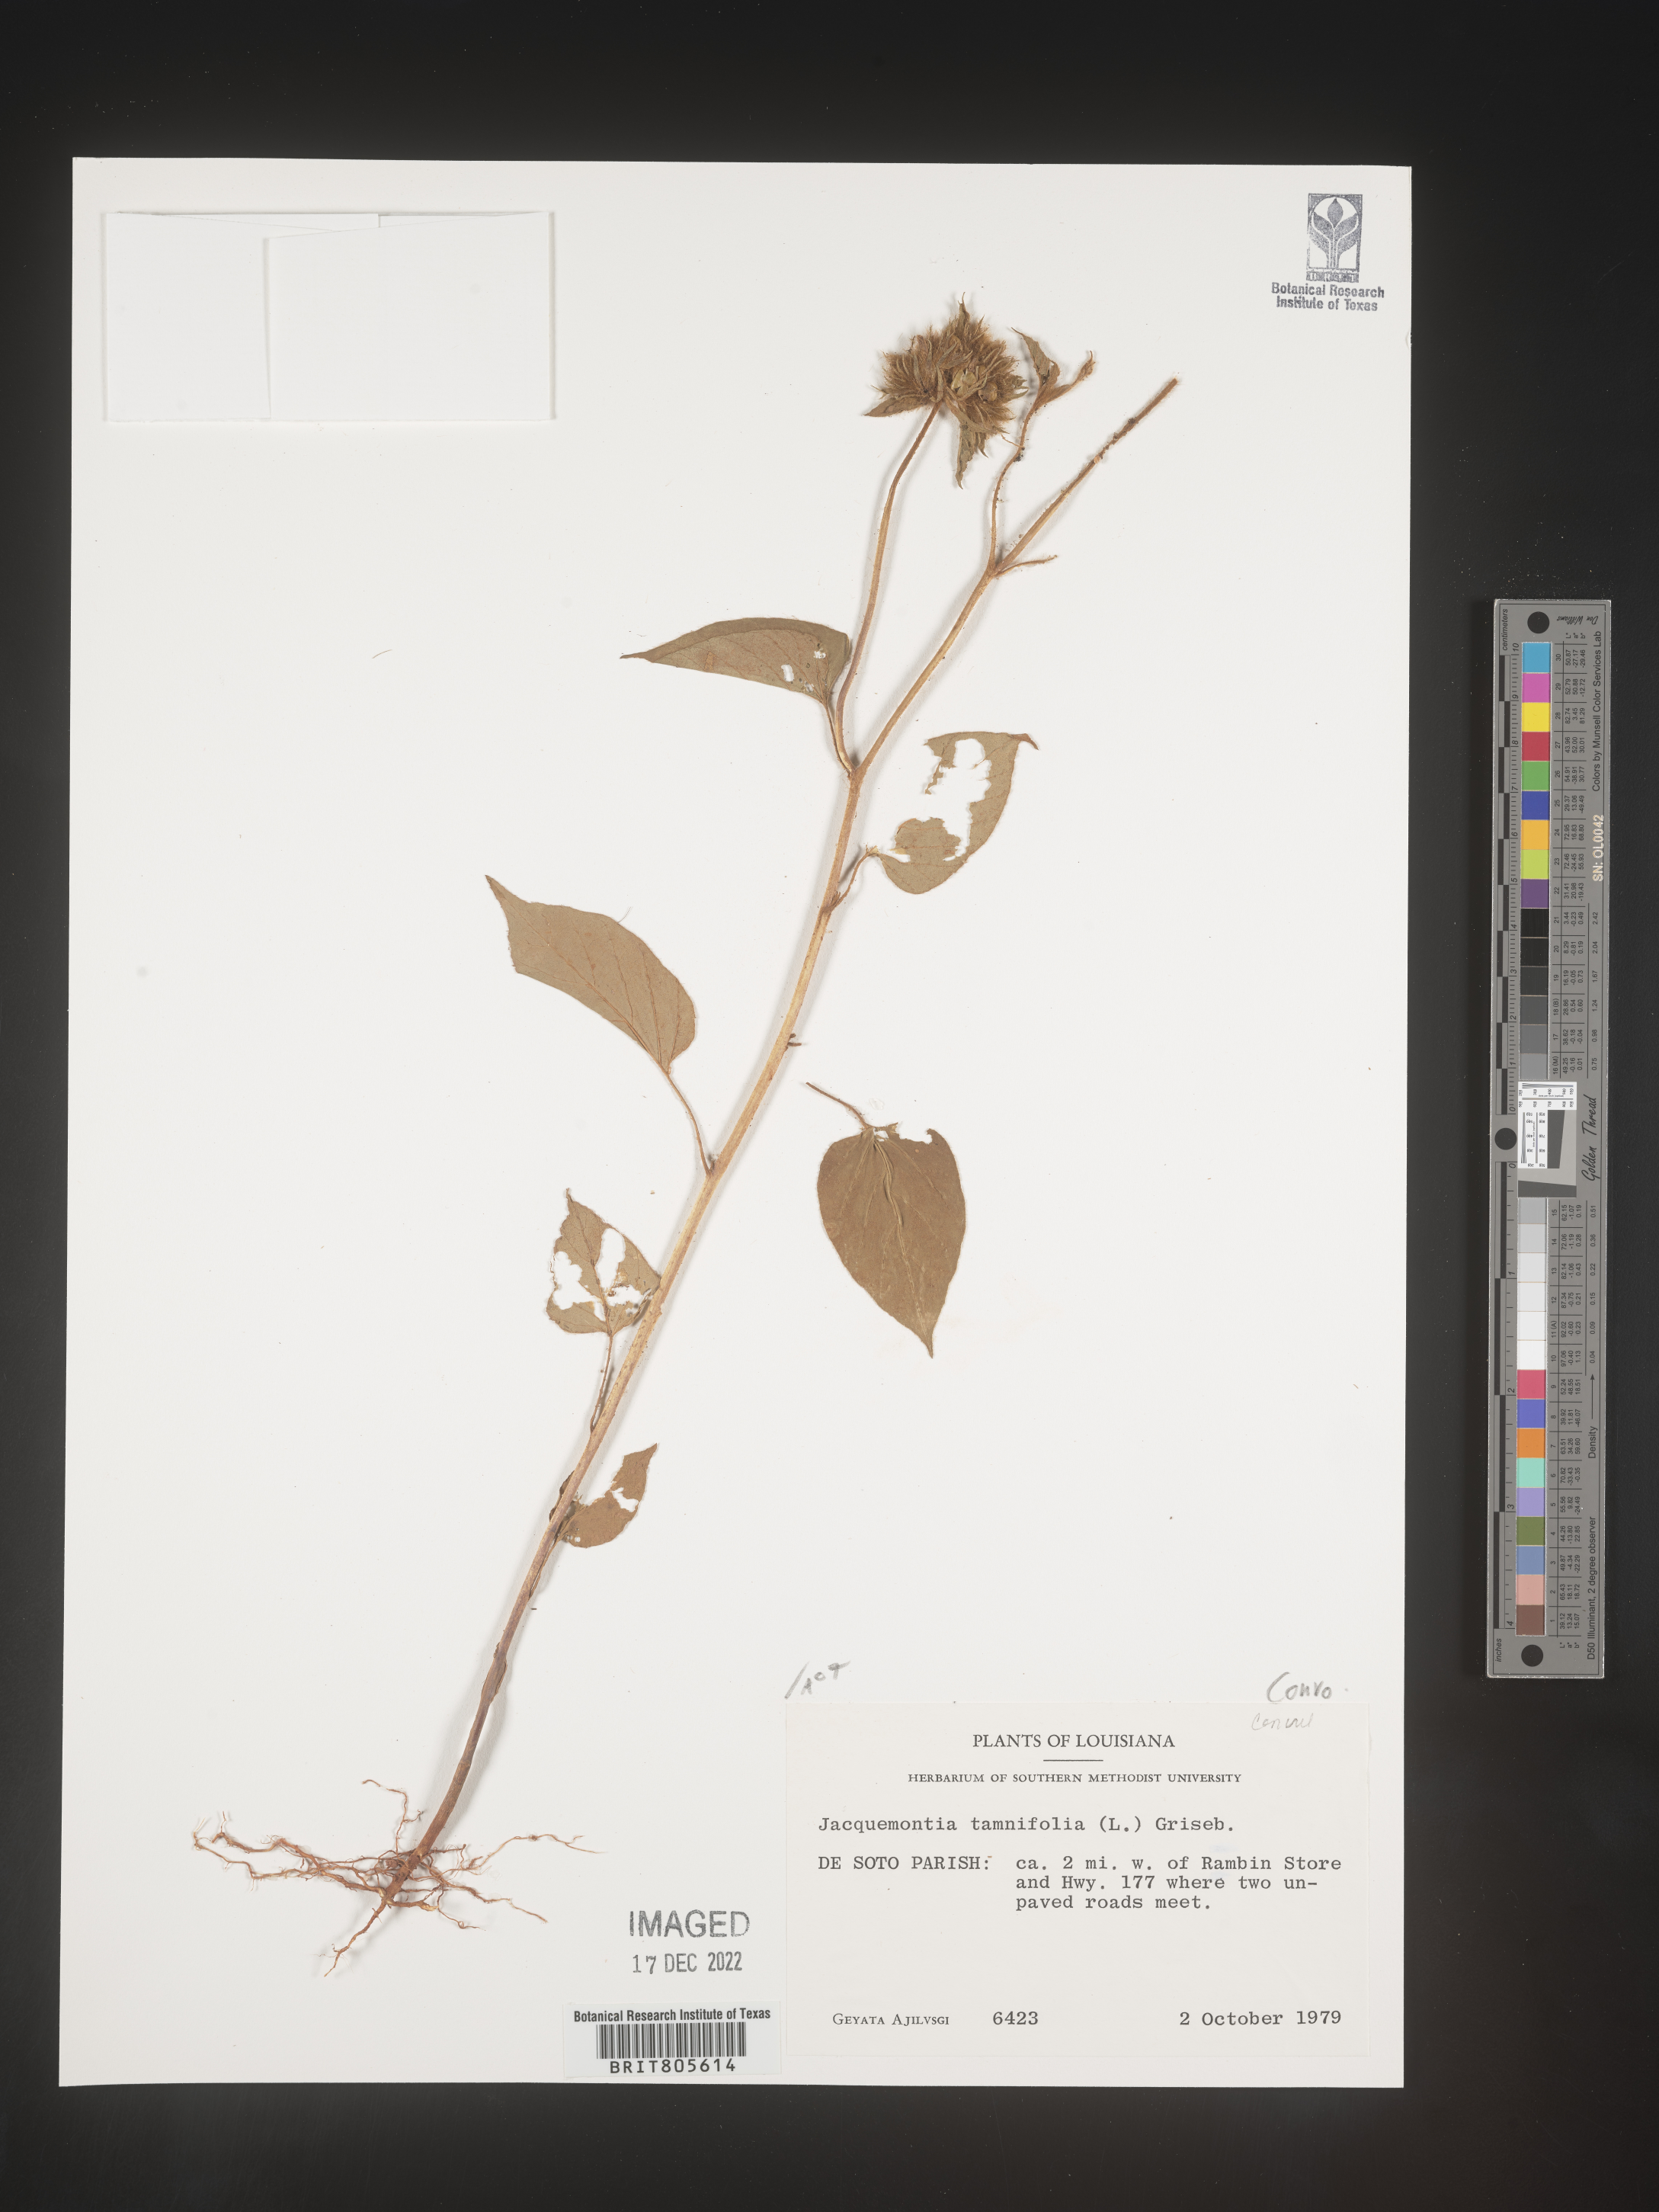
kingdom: Plantae
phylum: Tracheophyta
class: Magnoliopsida
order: Solanales
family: Convolvulaceae
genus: Jacquemontia
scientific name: Jacquemontia tamnifolia
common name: Hairy clustervine
